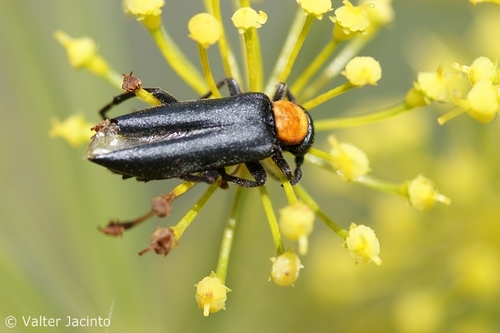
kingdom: Animalia
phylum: Arthropoda
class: Insecta
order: Coleoptera
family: Meloidae
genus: Oenas
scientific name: Oenas fusicornis
